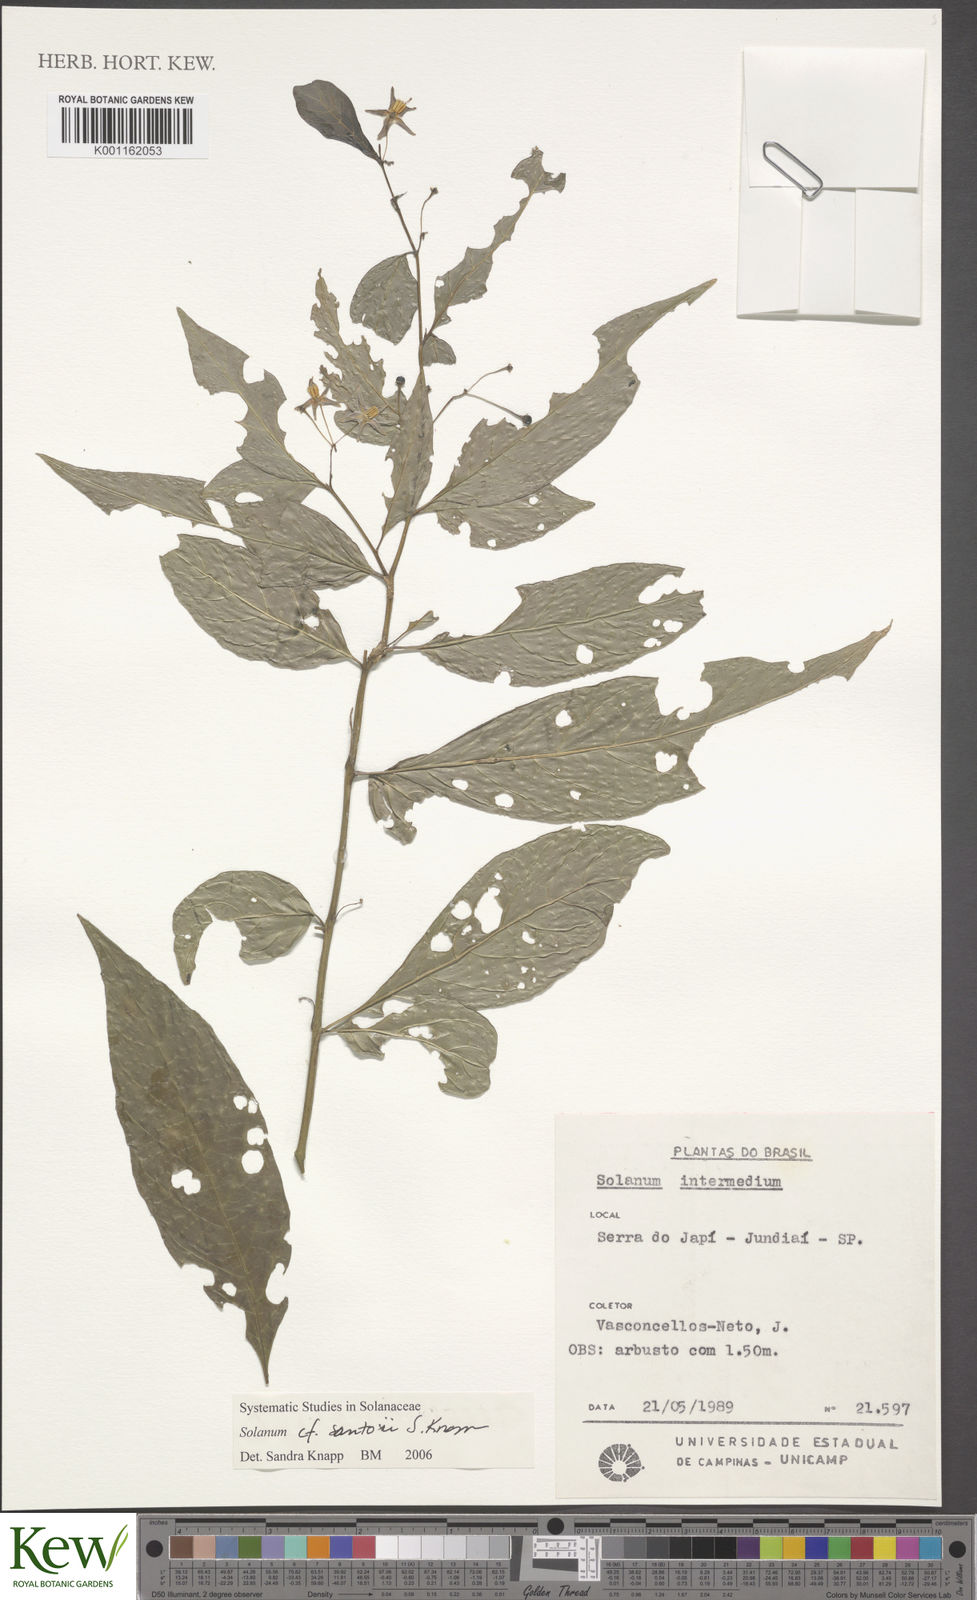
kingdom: Plantae
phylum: Tracheophyta
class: Magnoliopsida
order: Solanales
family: Solanaceae
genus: Solanum
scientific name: Solanum santosii
